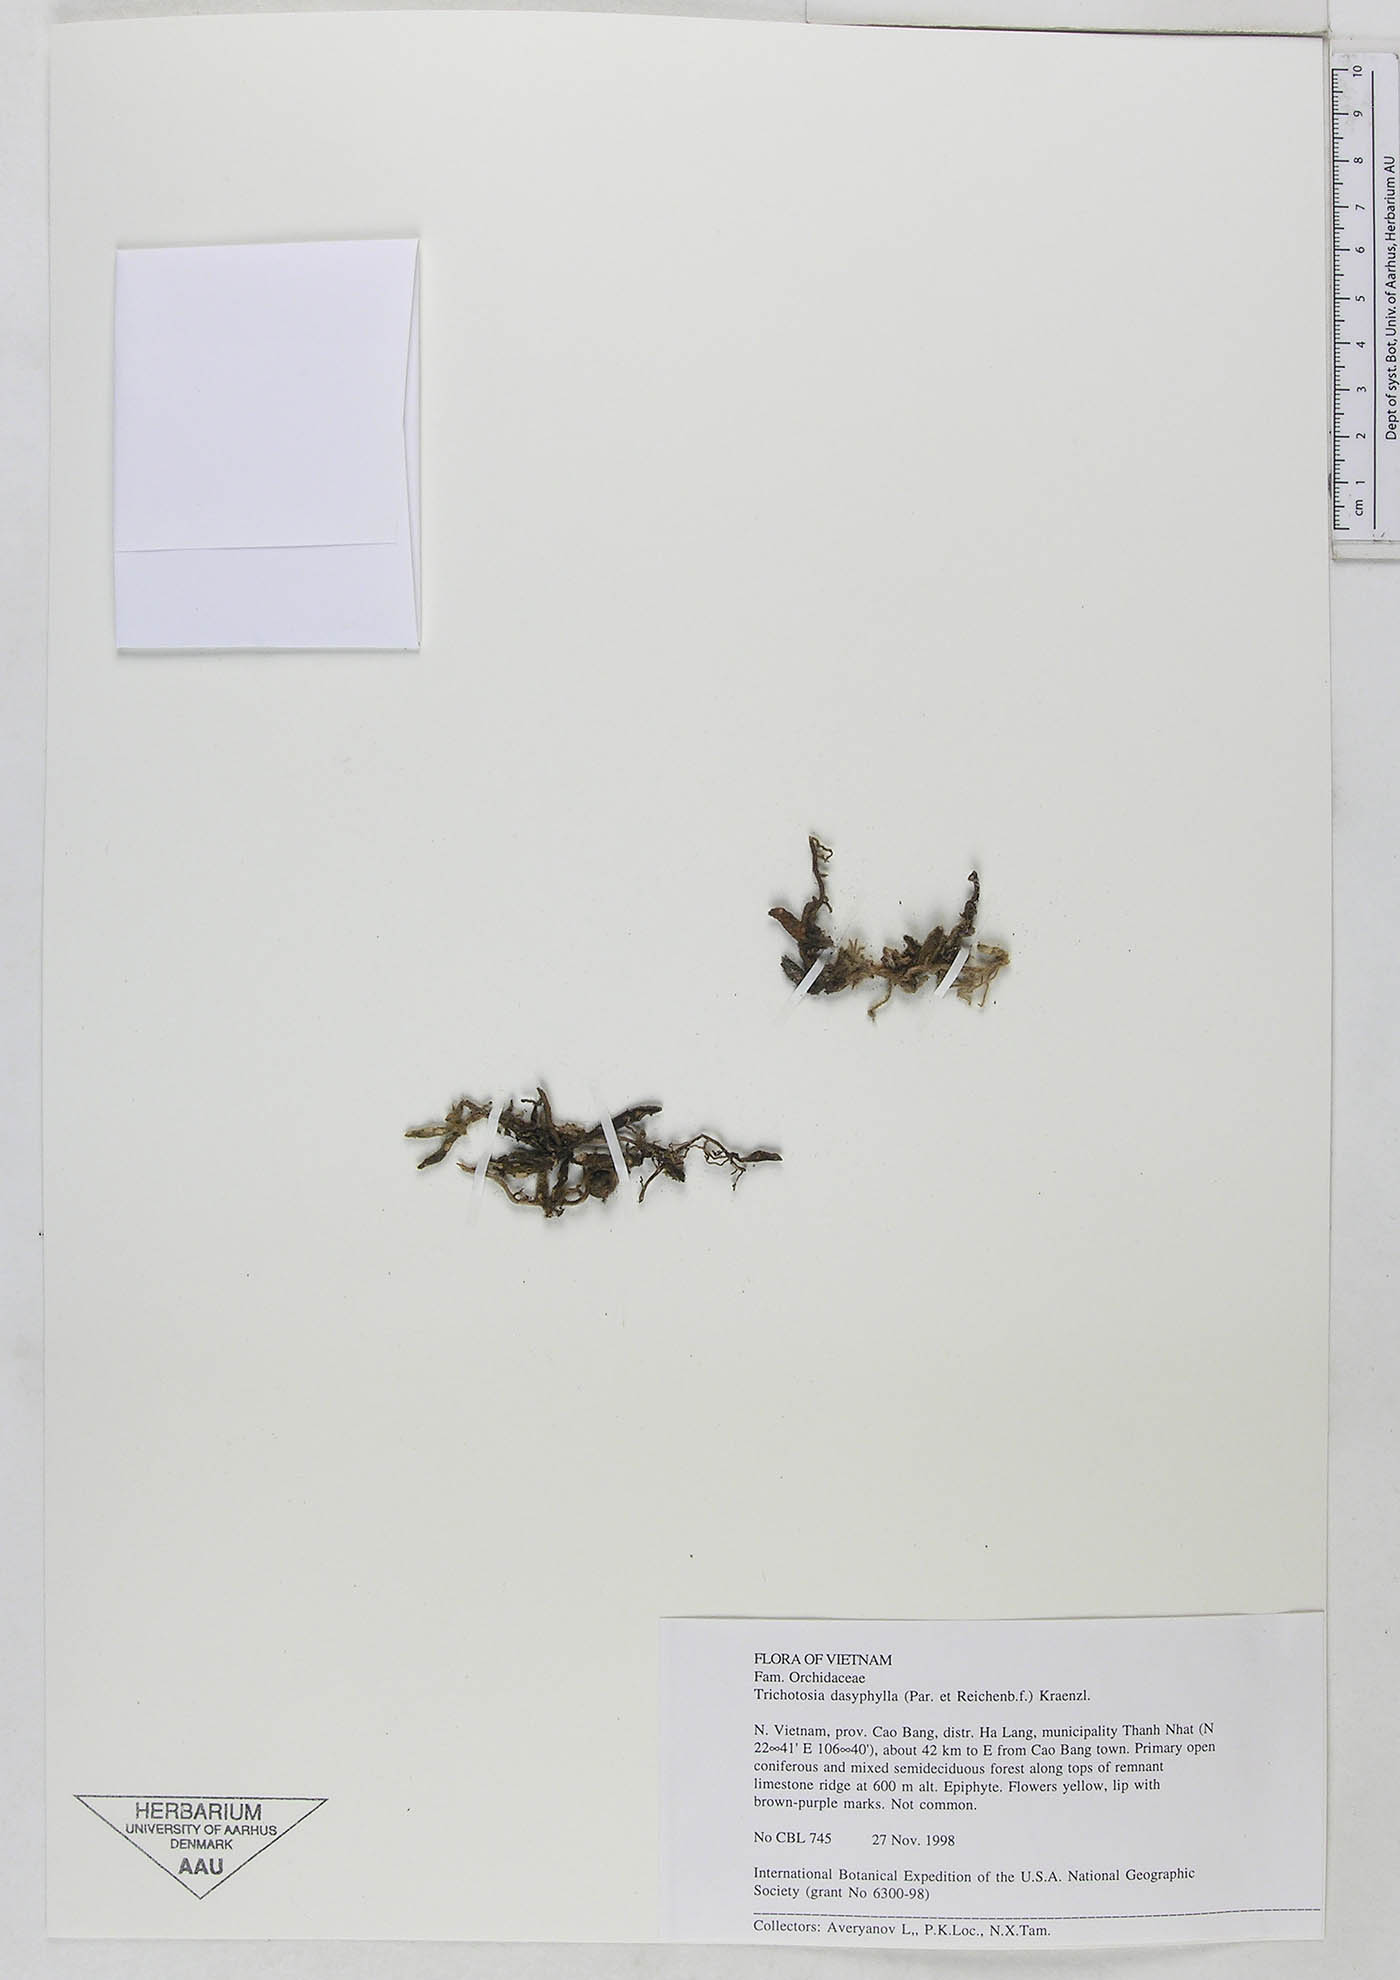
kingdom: Plantae
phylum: Tracheophyta
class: Liliopsida
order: Asparagales
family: Orchidaceae
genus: Trichotosia
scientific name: Trichotosia dasyphylla
